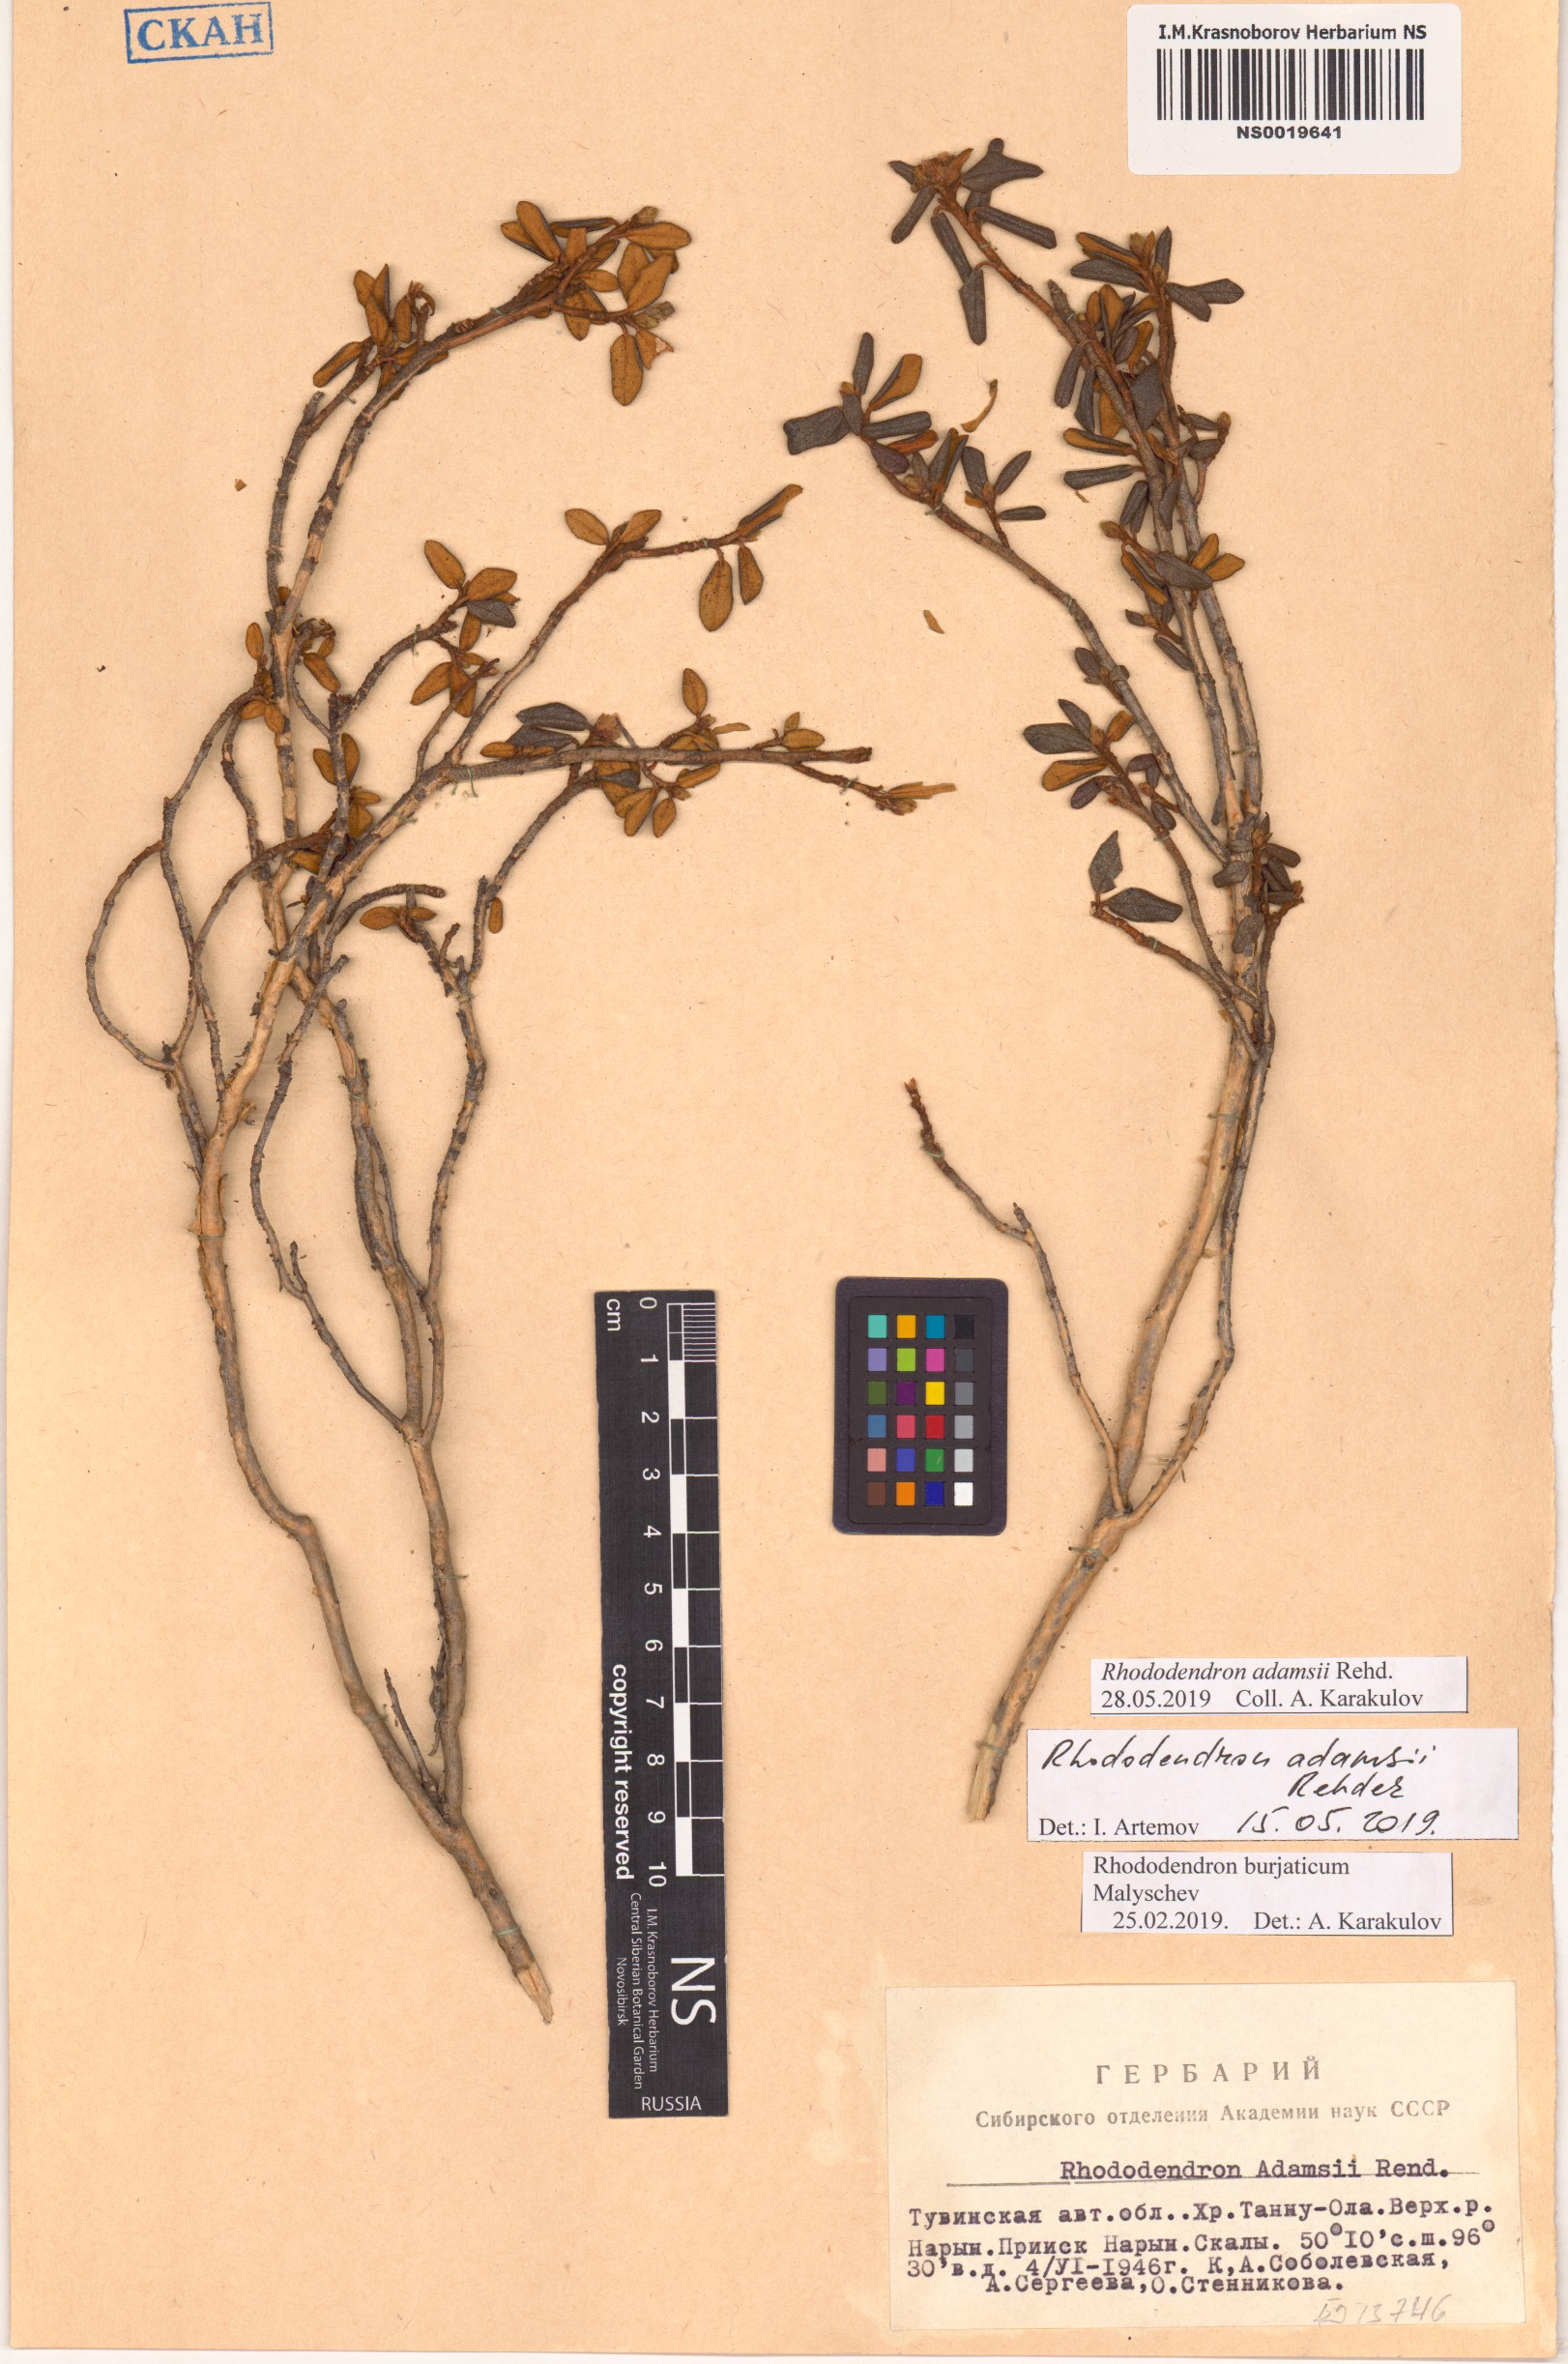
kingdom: Plantae
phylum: Tracheophyta
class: Magnoliopsida
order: Ericales
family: Ericaceae
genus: Rhododendron
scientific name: Rhododendron adamsii
